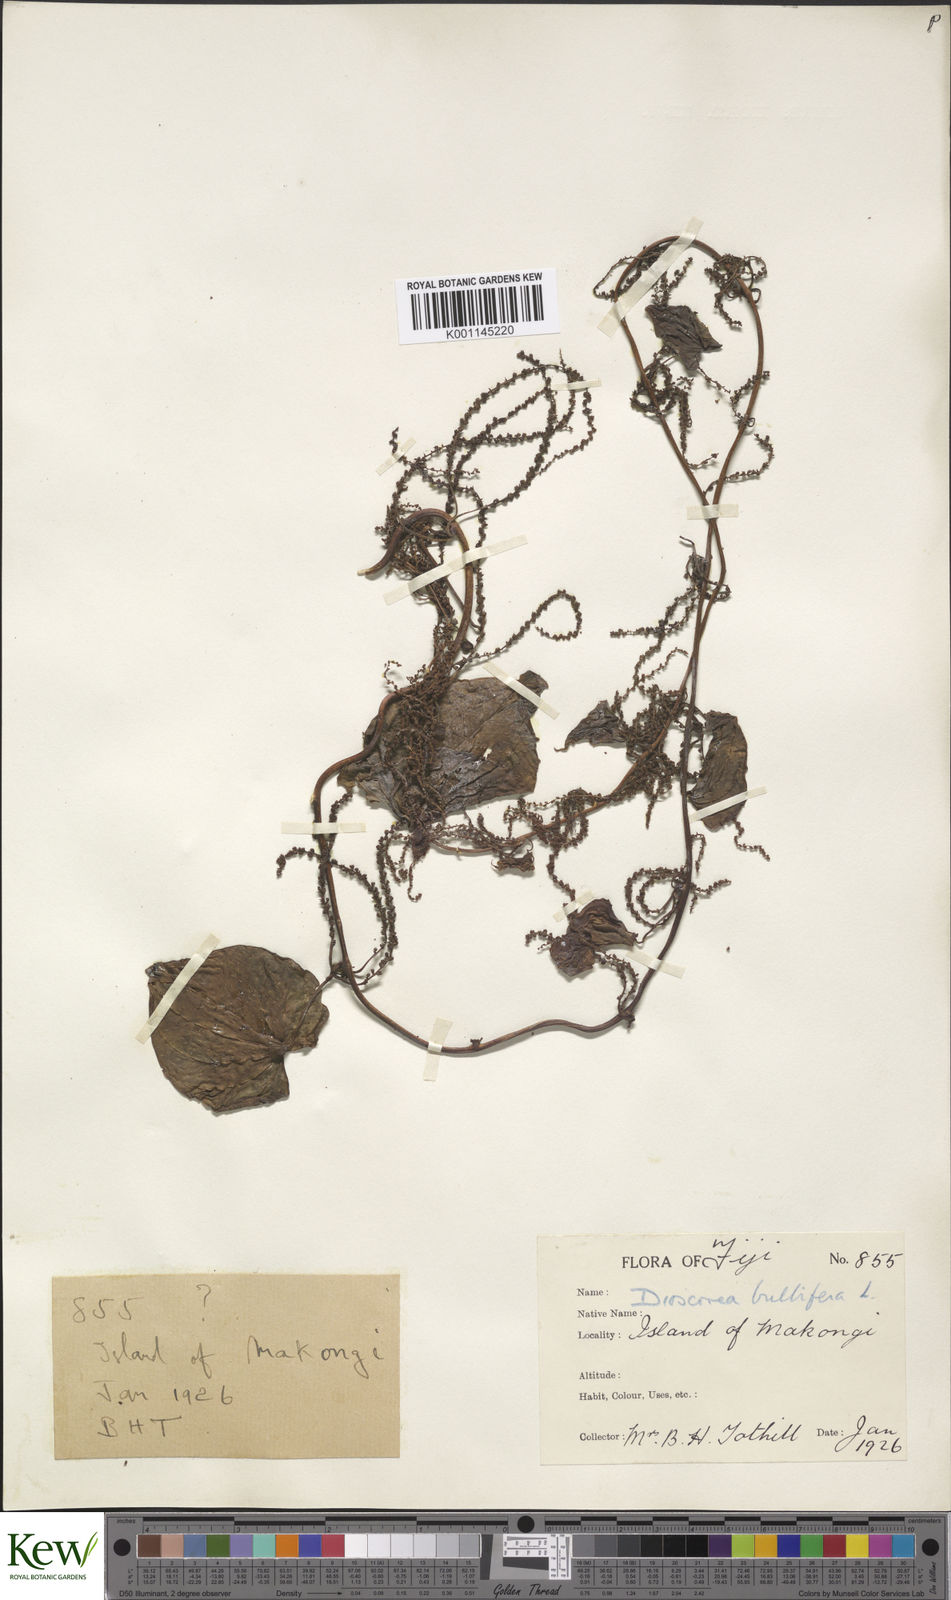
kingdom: Plantae
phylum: Tracheophyta
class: Liliopsida
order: Dioscoreales
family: Dioscoreaceae
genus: Dioscorea
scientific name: Dioscorea bulbifera
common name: Air yam
